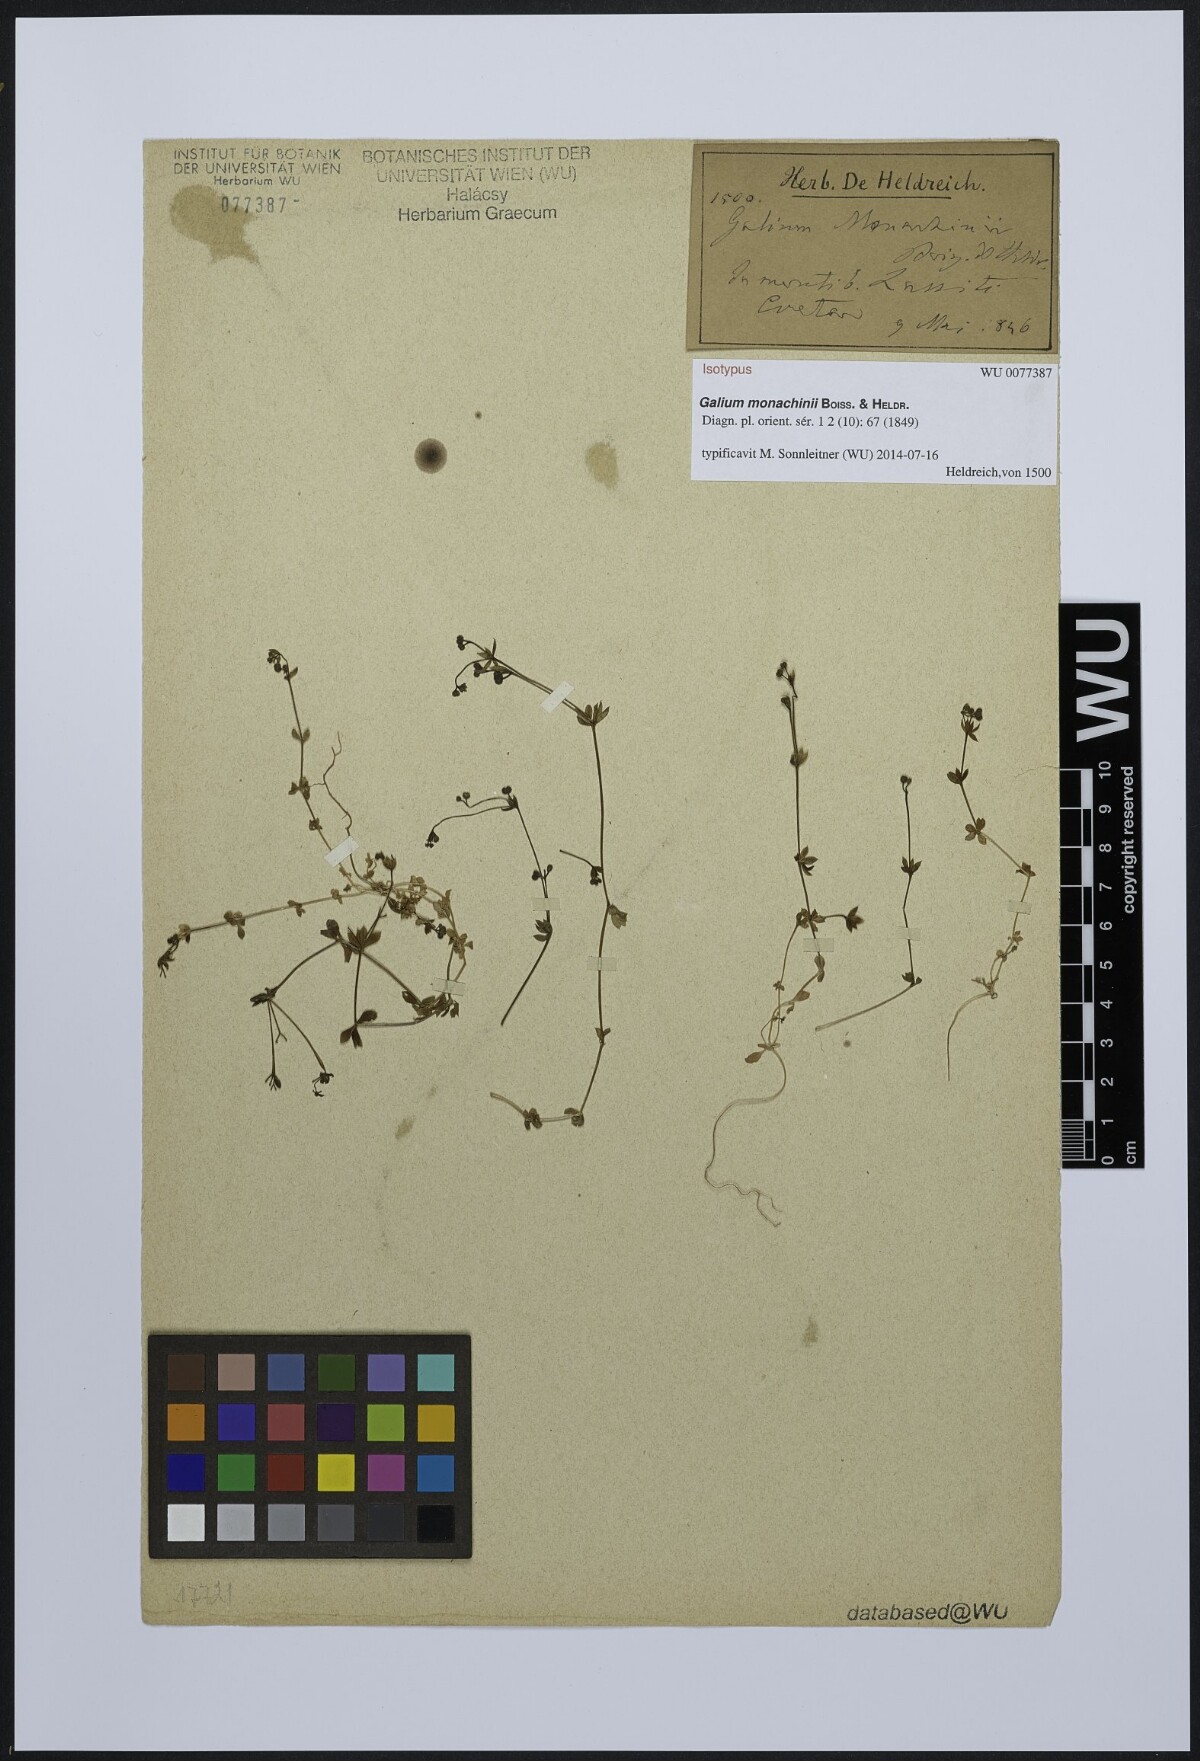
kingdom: Plantae
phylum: Tracheophyta
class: Magnoliopsida
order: Gentianales
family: Rubiaceae
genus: Galium
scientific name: Galium monachinii
